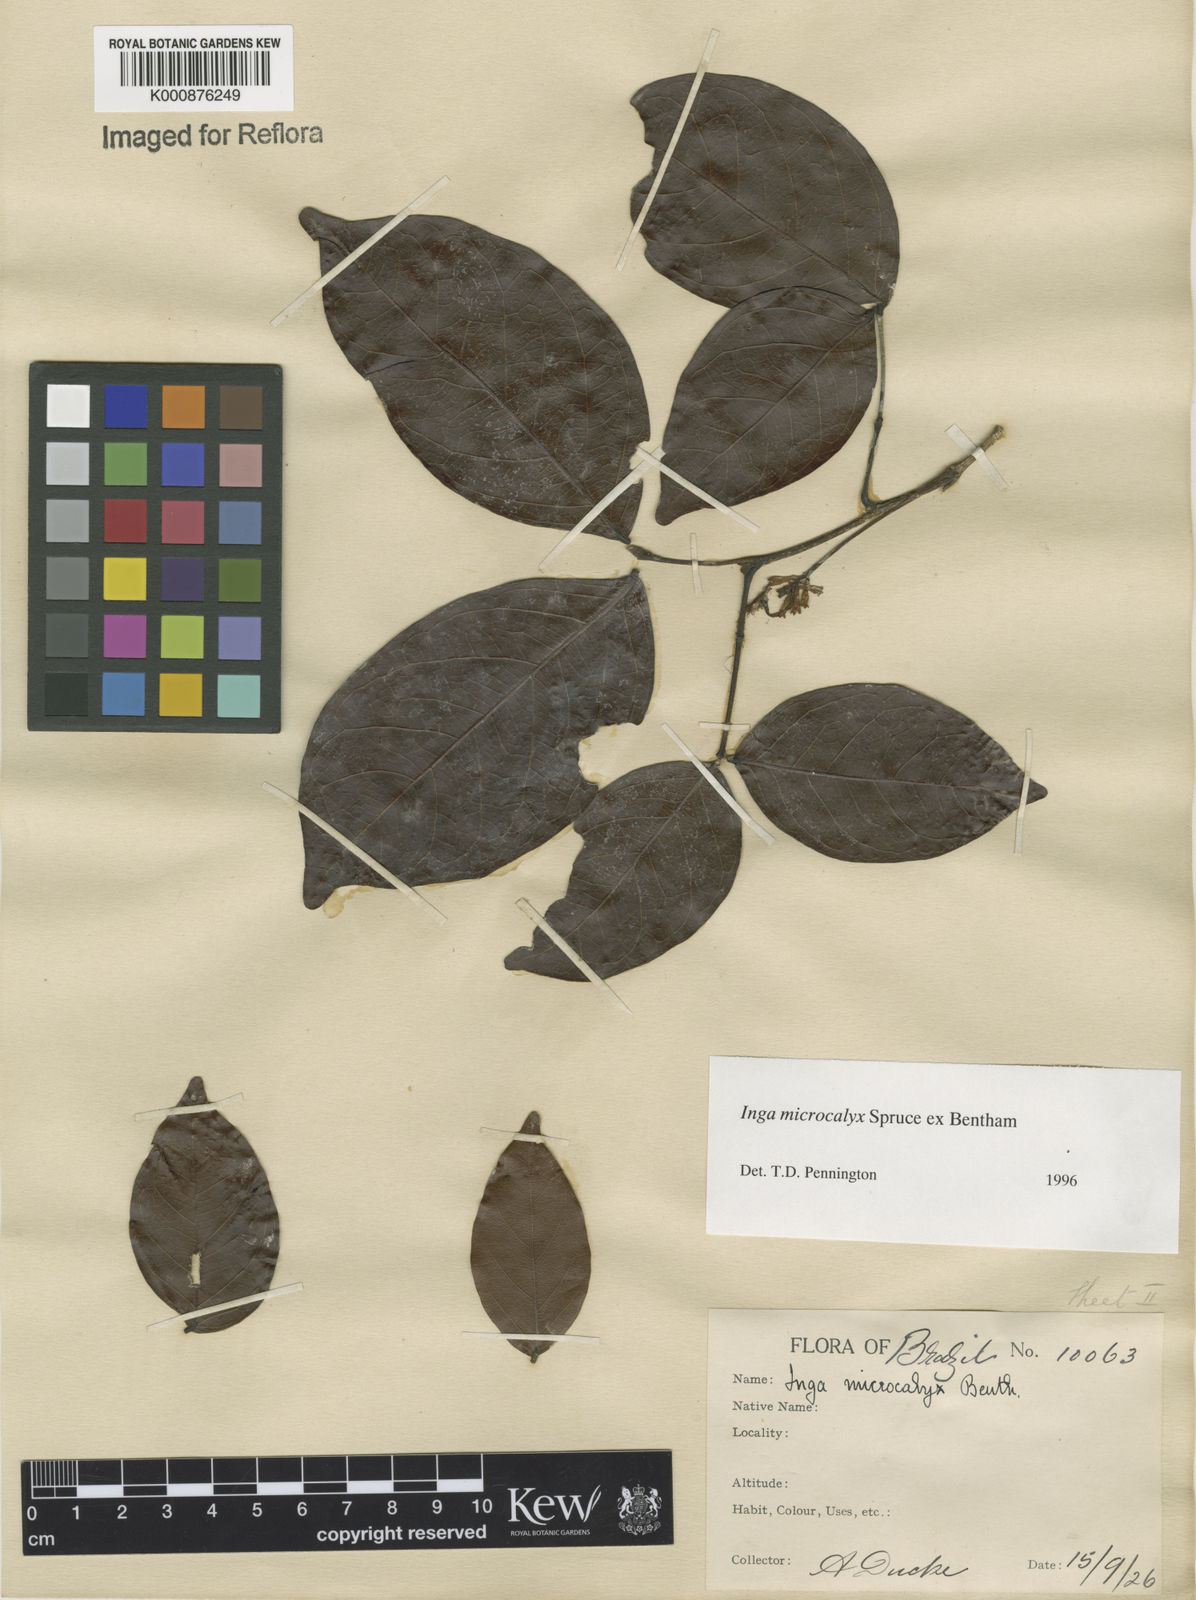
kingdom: Plantae
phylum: Tracheophyta
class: Magnoliopsida
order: Fabales
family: Fabaceae
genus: Inga
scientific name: Inga microcalyx
